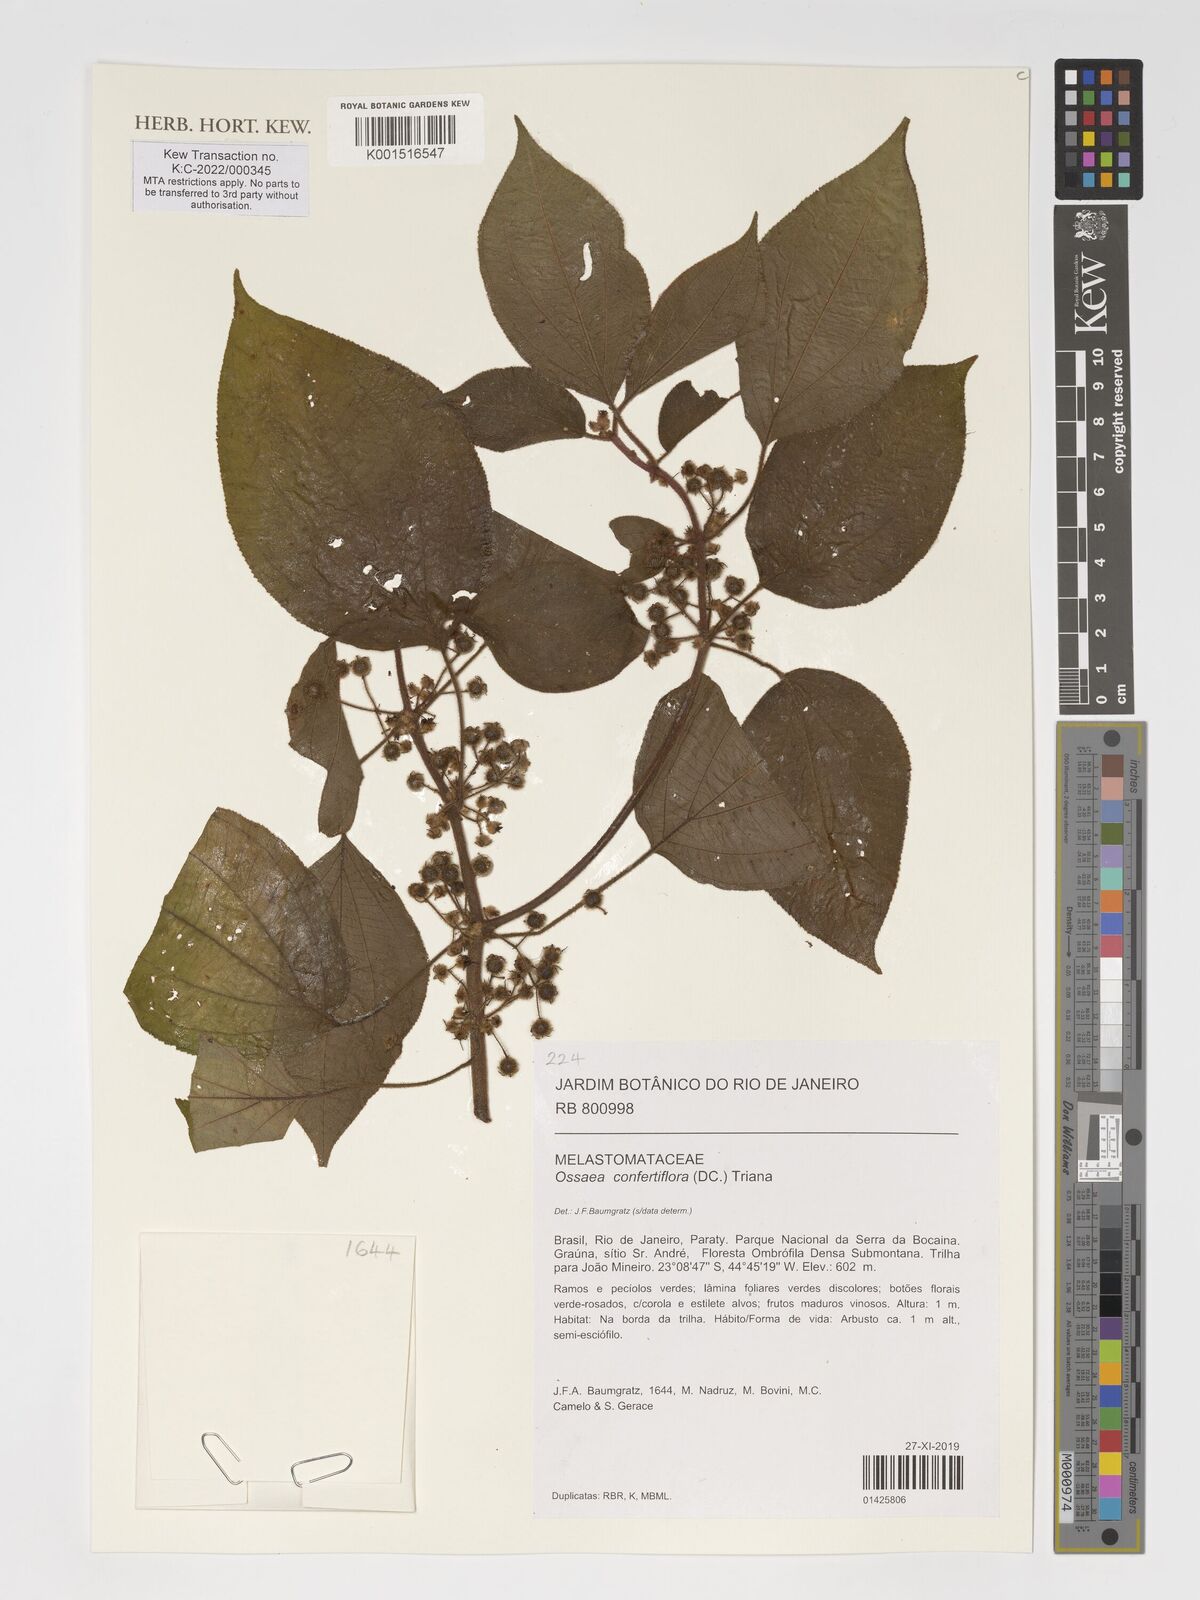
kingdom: Plantae
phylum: Tracheophyta
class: Magnoliopsida
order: Myrtales
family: Melastomataceae
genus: Miconia
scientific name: Miconia rubella
